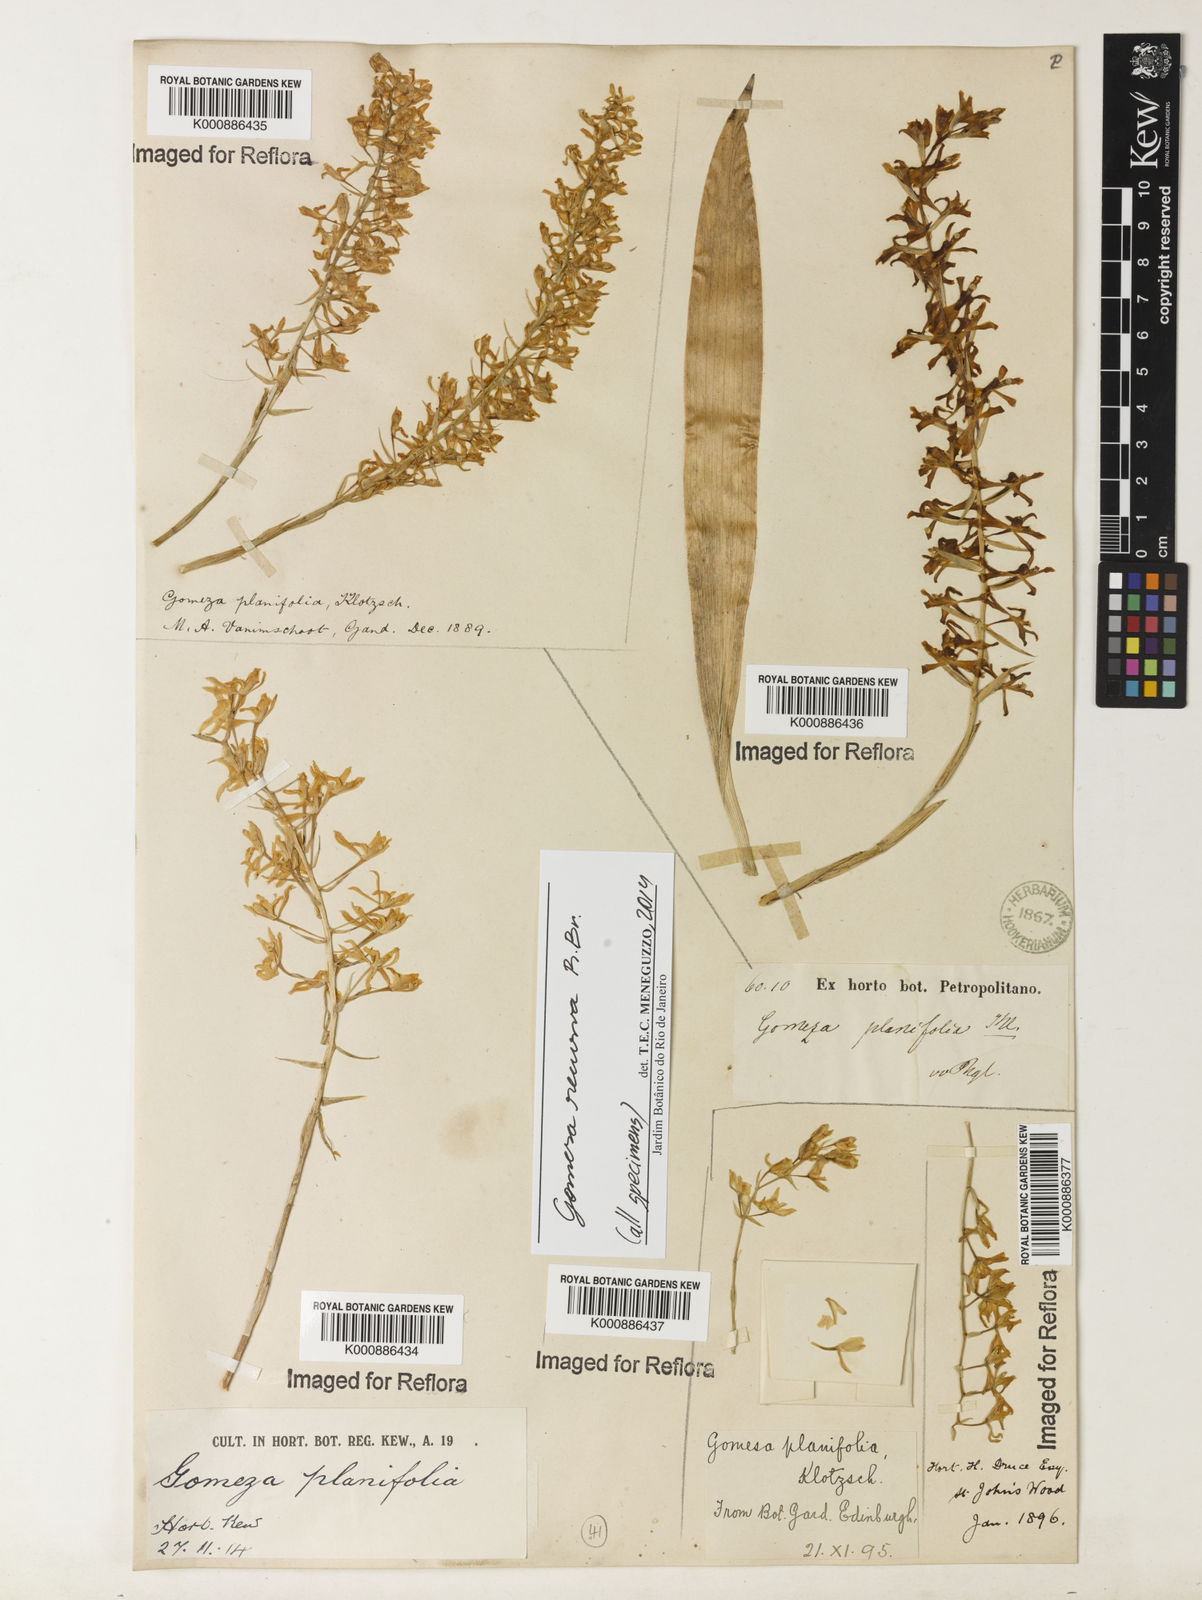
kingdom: Plantae
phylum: Tracheophyta
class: Liliopsida
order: Asparagales
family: Orchidaceae
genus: Gomesa
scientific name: Gomesa recurva
